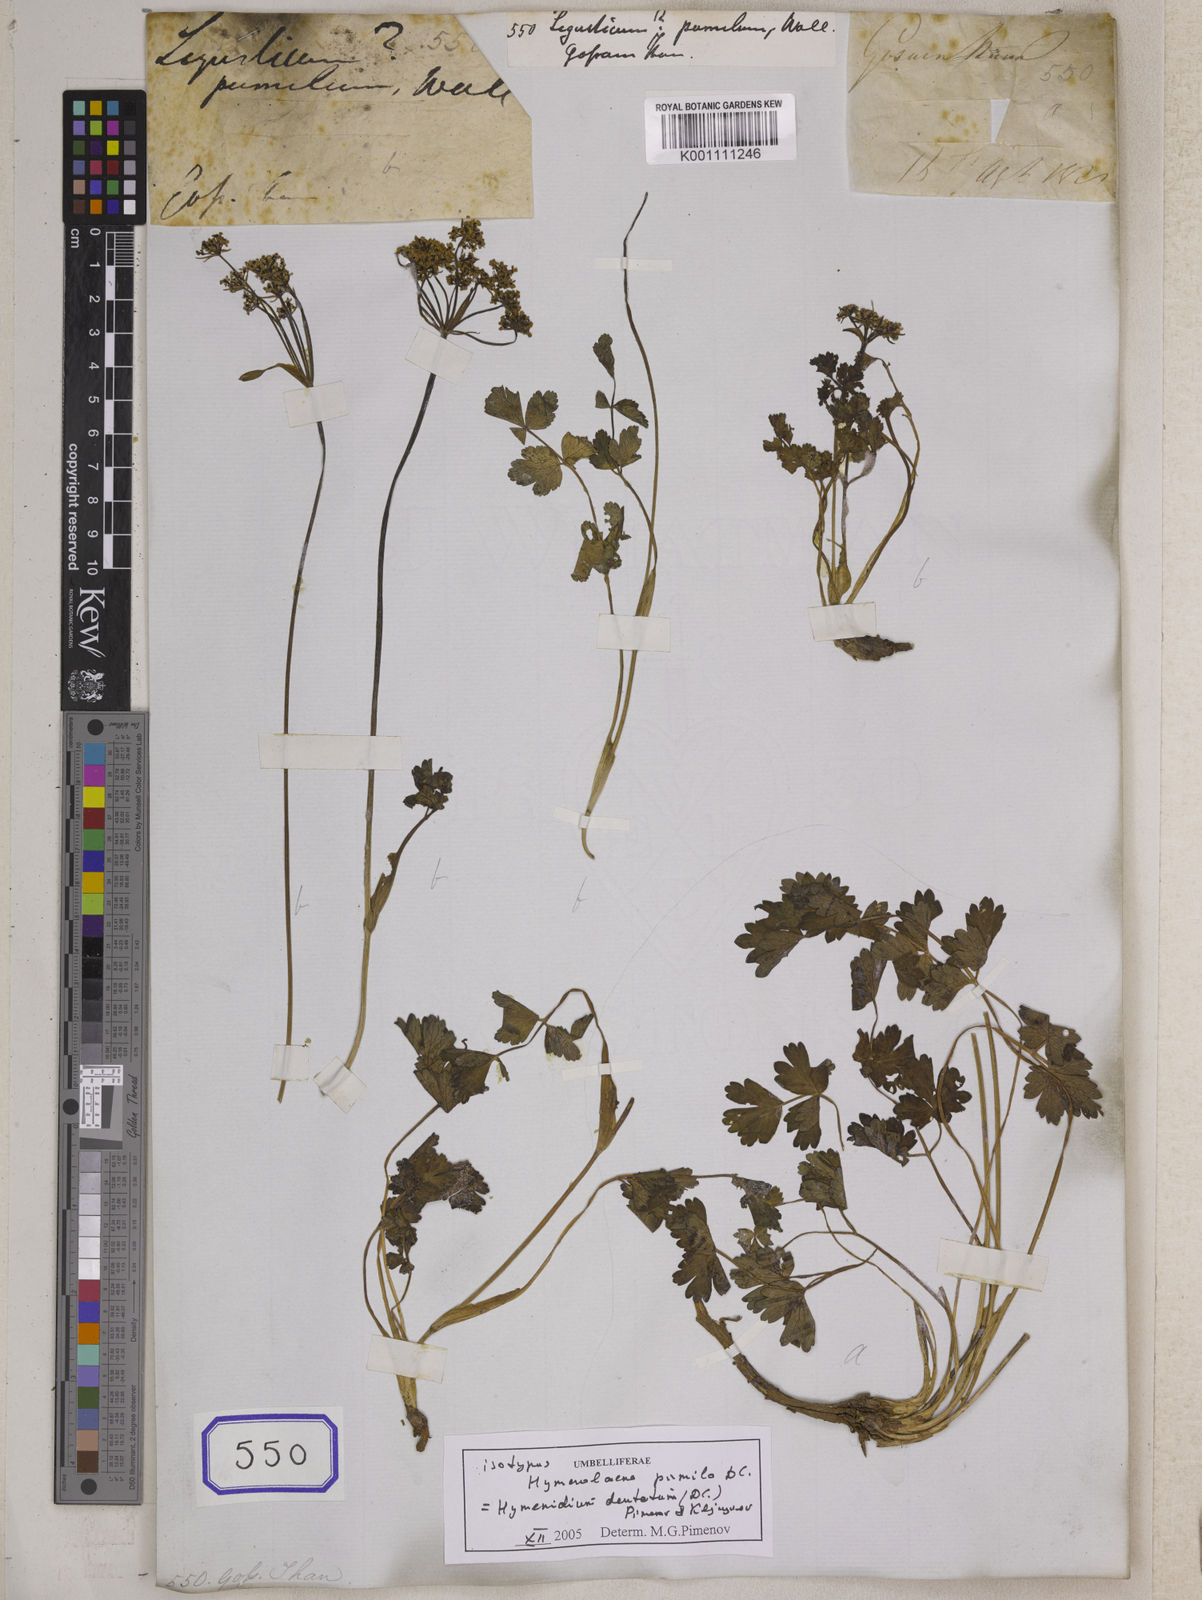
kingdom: Plantae
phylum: Tracheophyta
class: Magnoliopsida
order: Apiales
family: Apiaceae
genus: Ligusticum
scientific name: Ligusticum
